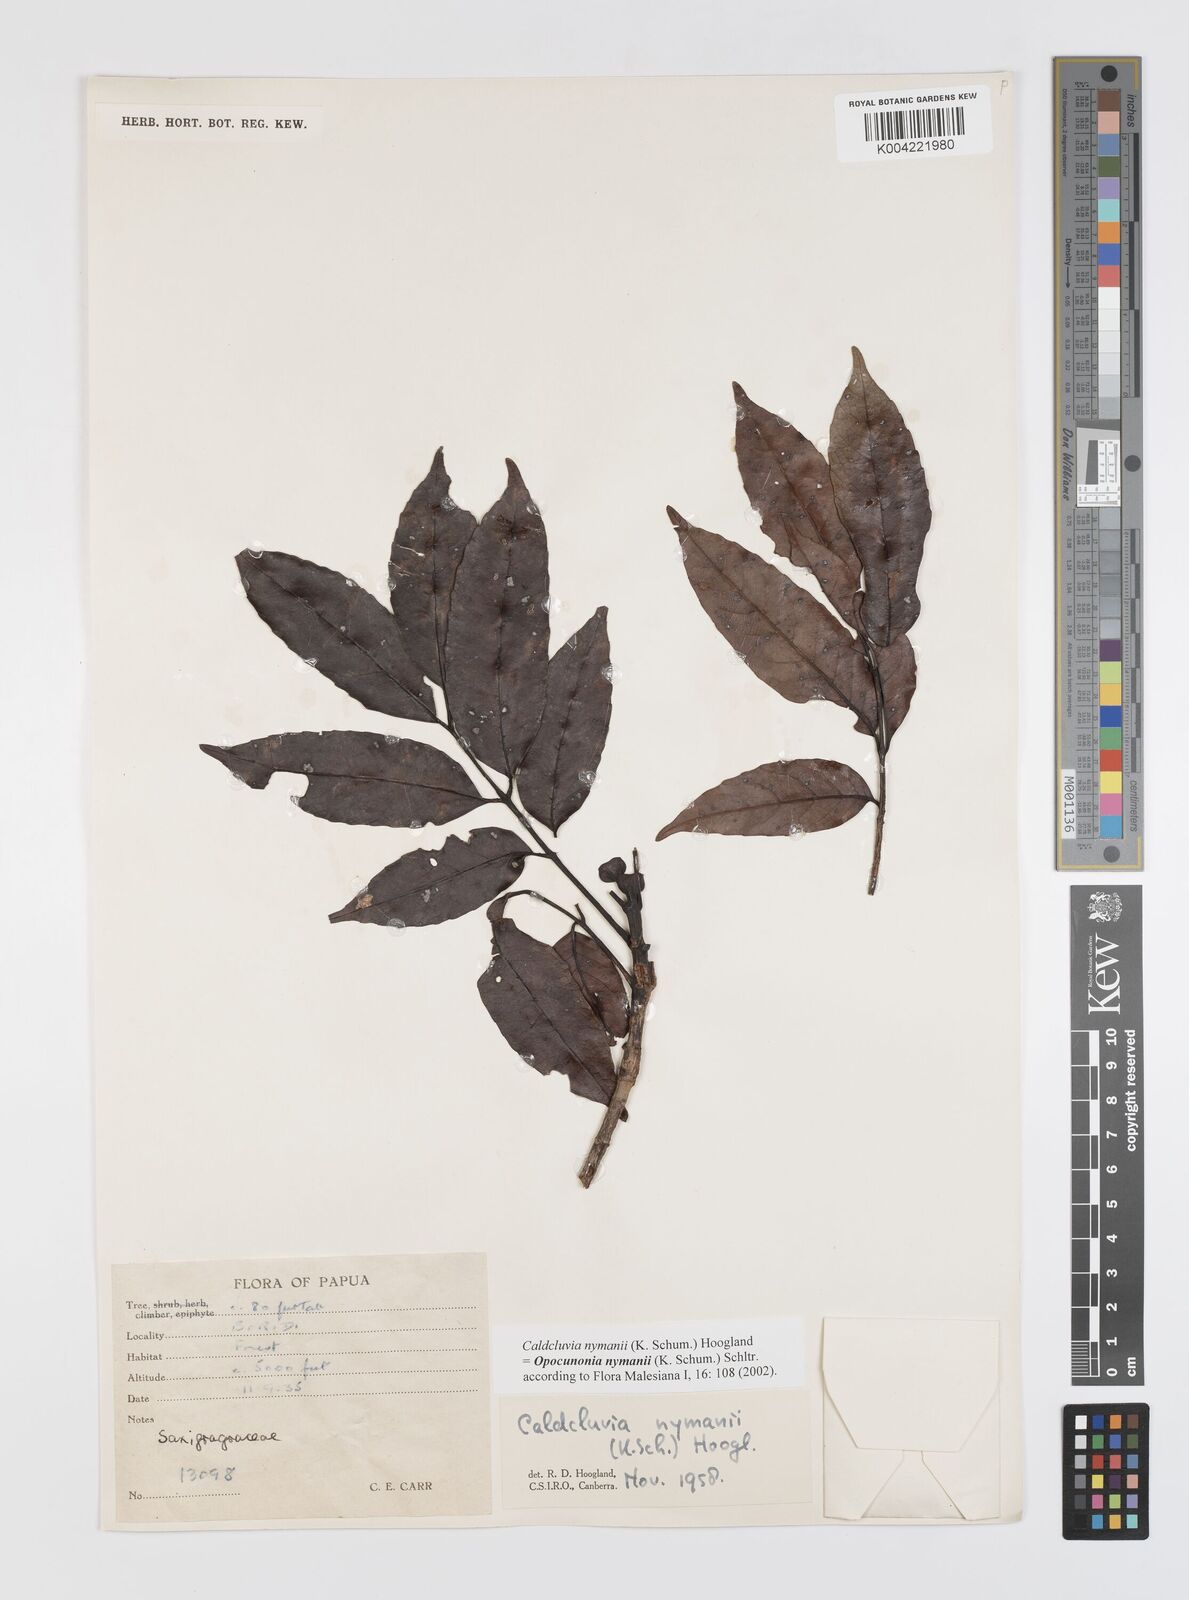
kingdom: Plantae
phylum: Tracheophyta
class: Magnoliopsida
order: Oxalidales
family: Cunoniaceae
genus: Opocunonia
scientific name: Opocunonia nymanii
